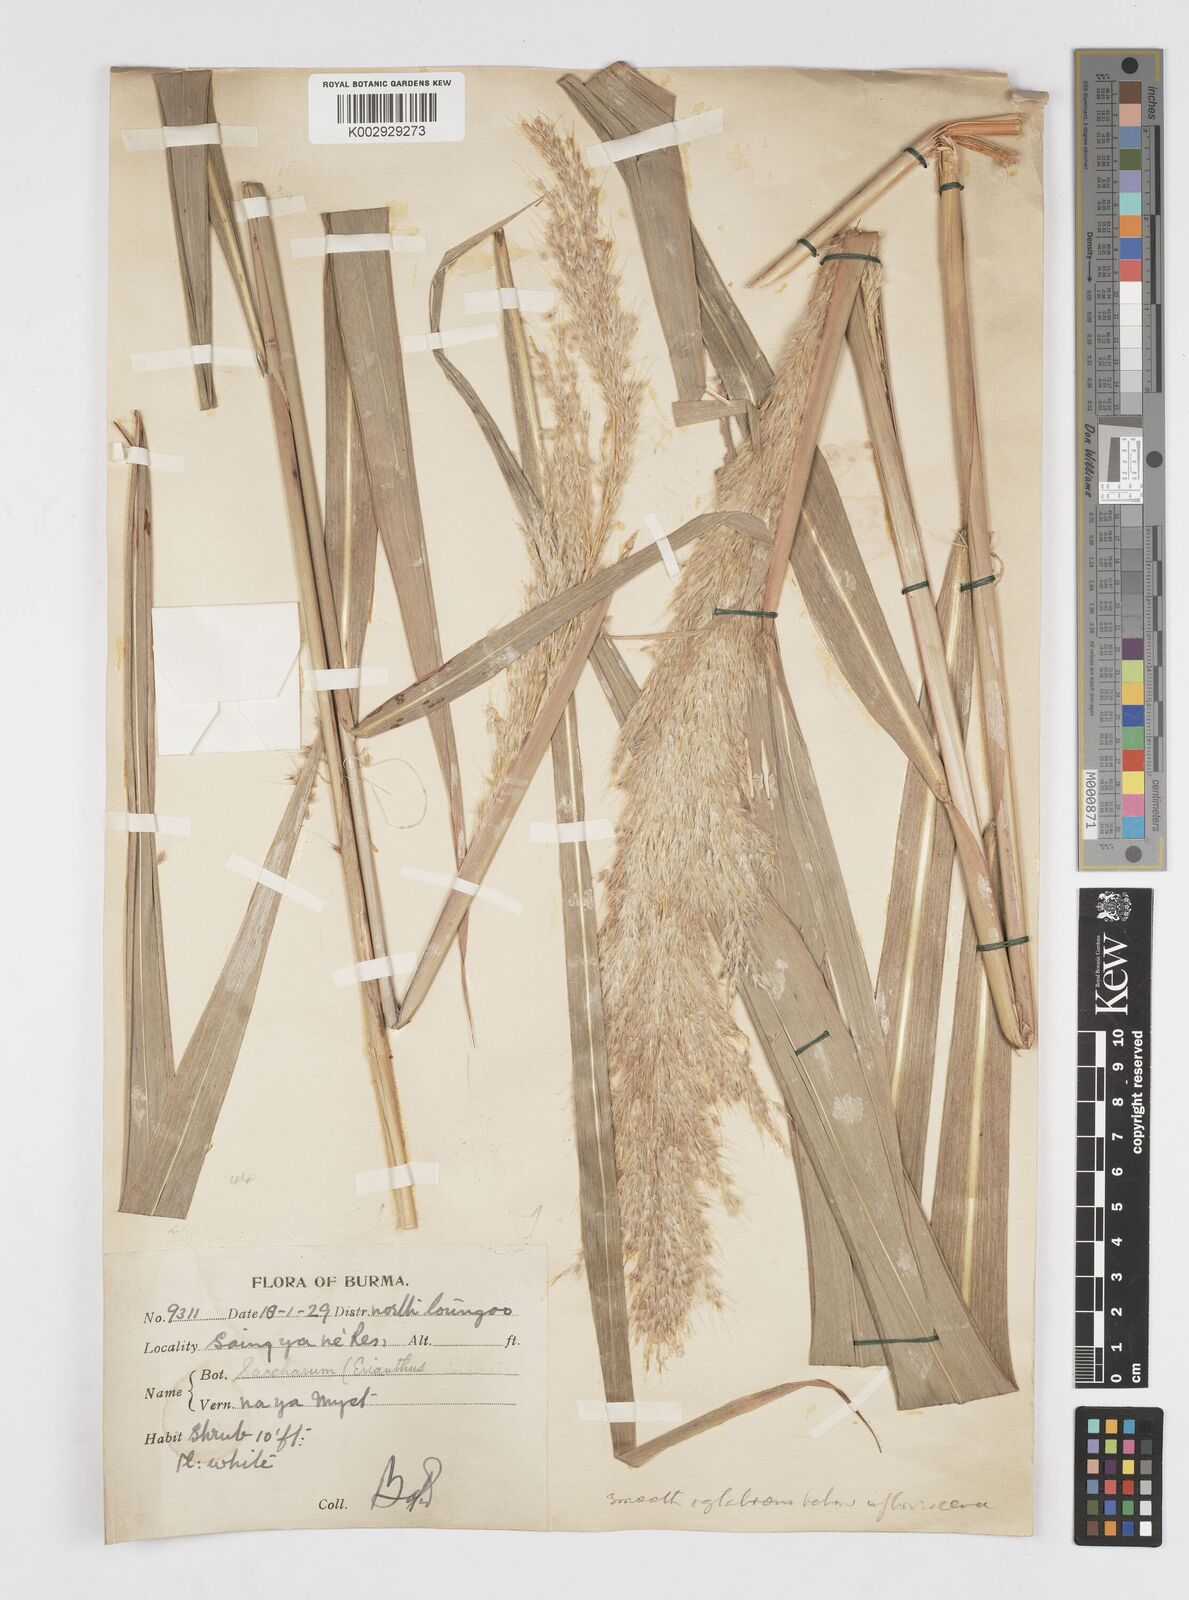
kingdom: Plantae
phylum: Tracheophyta
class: Liliopsida
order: Poales
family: Poaceae
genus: Saccharum
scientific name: Saccharum longesetosum
